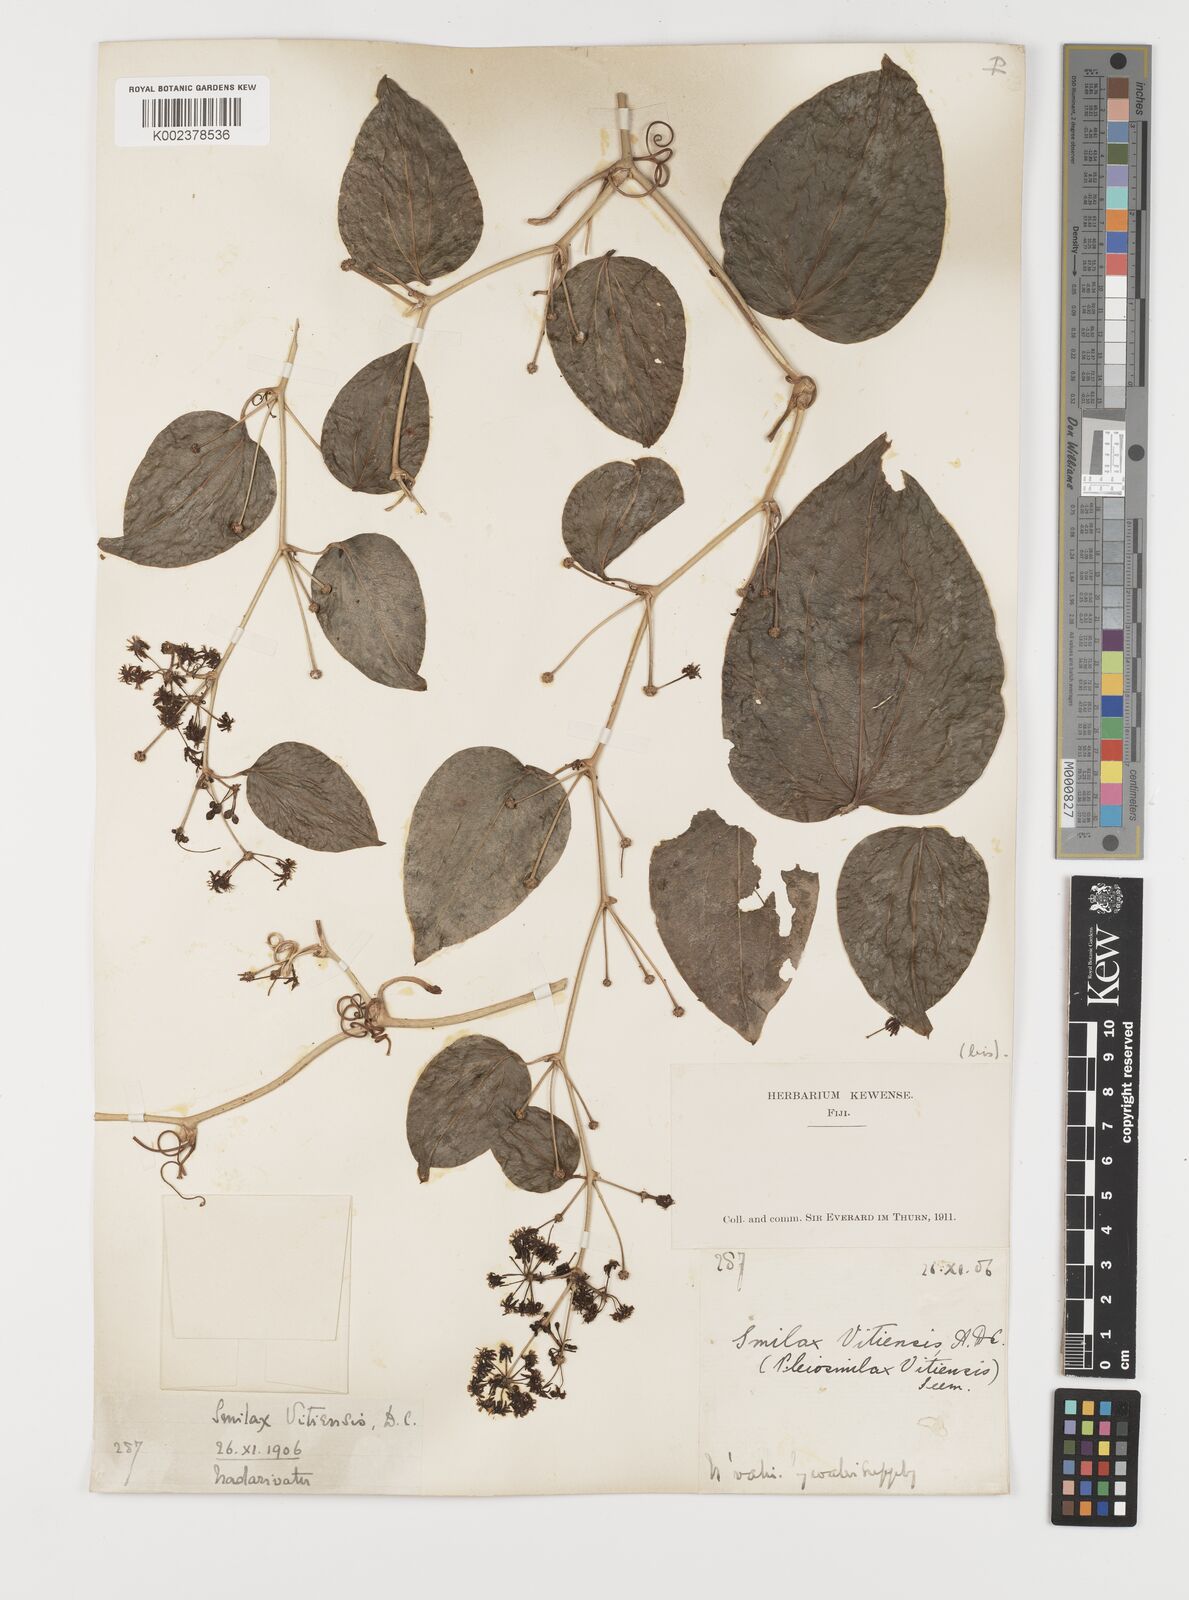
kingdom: Plantae
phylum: Tracheophyta
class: Liliopsida
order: Liliales
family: Smilacaceae
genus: Smilax
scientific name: Smilax vitiensis
